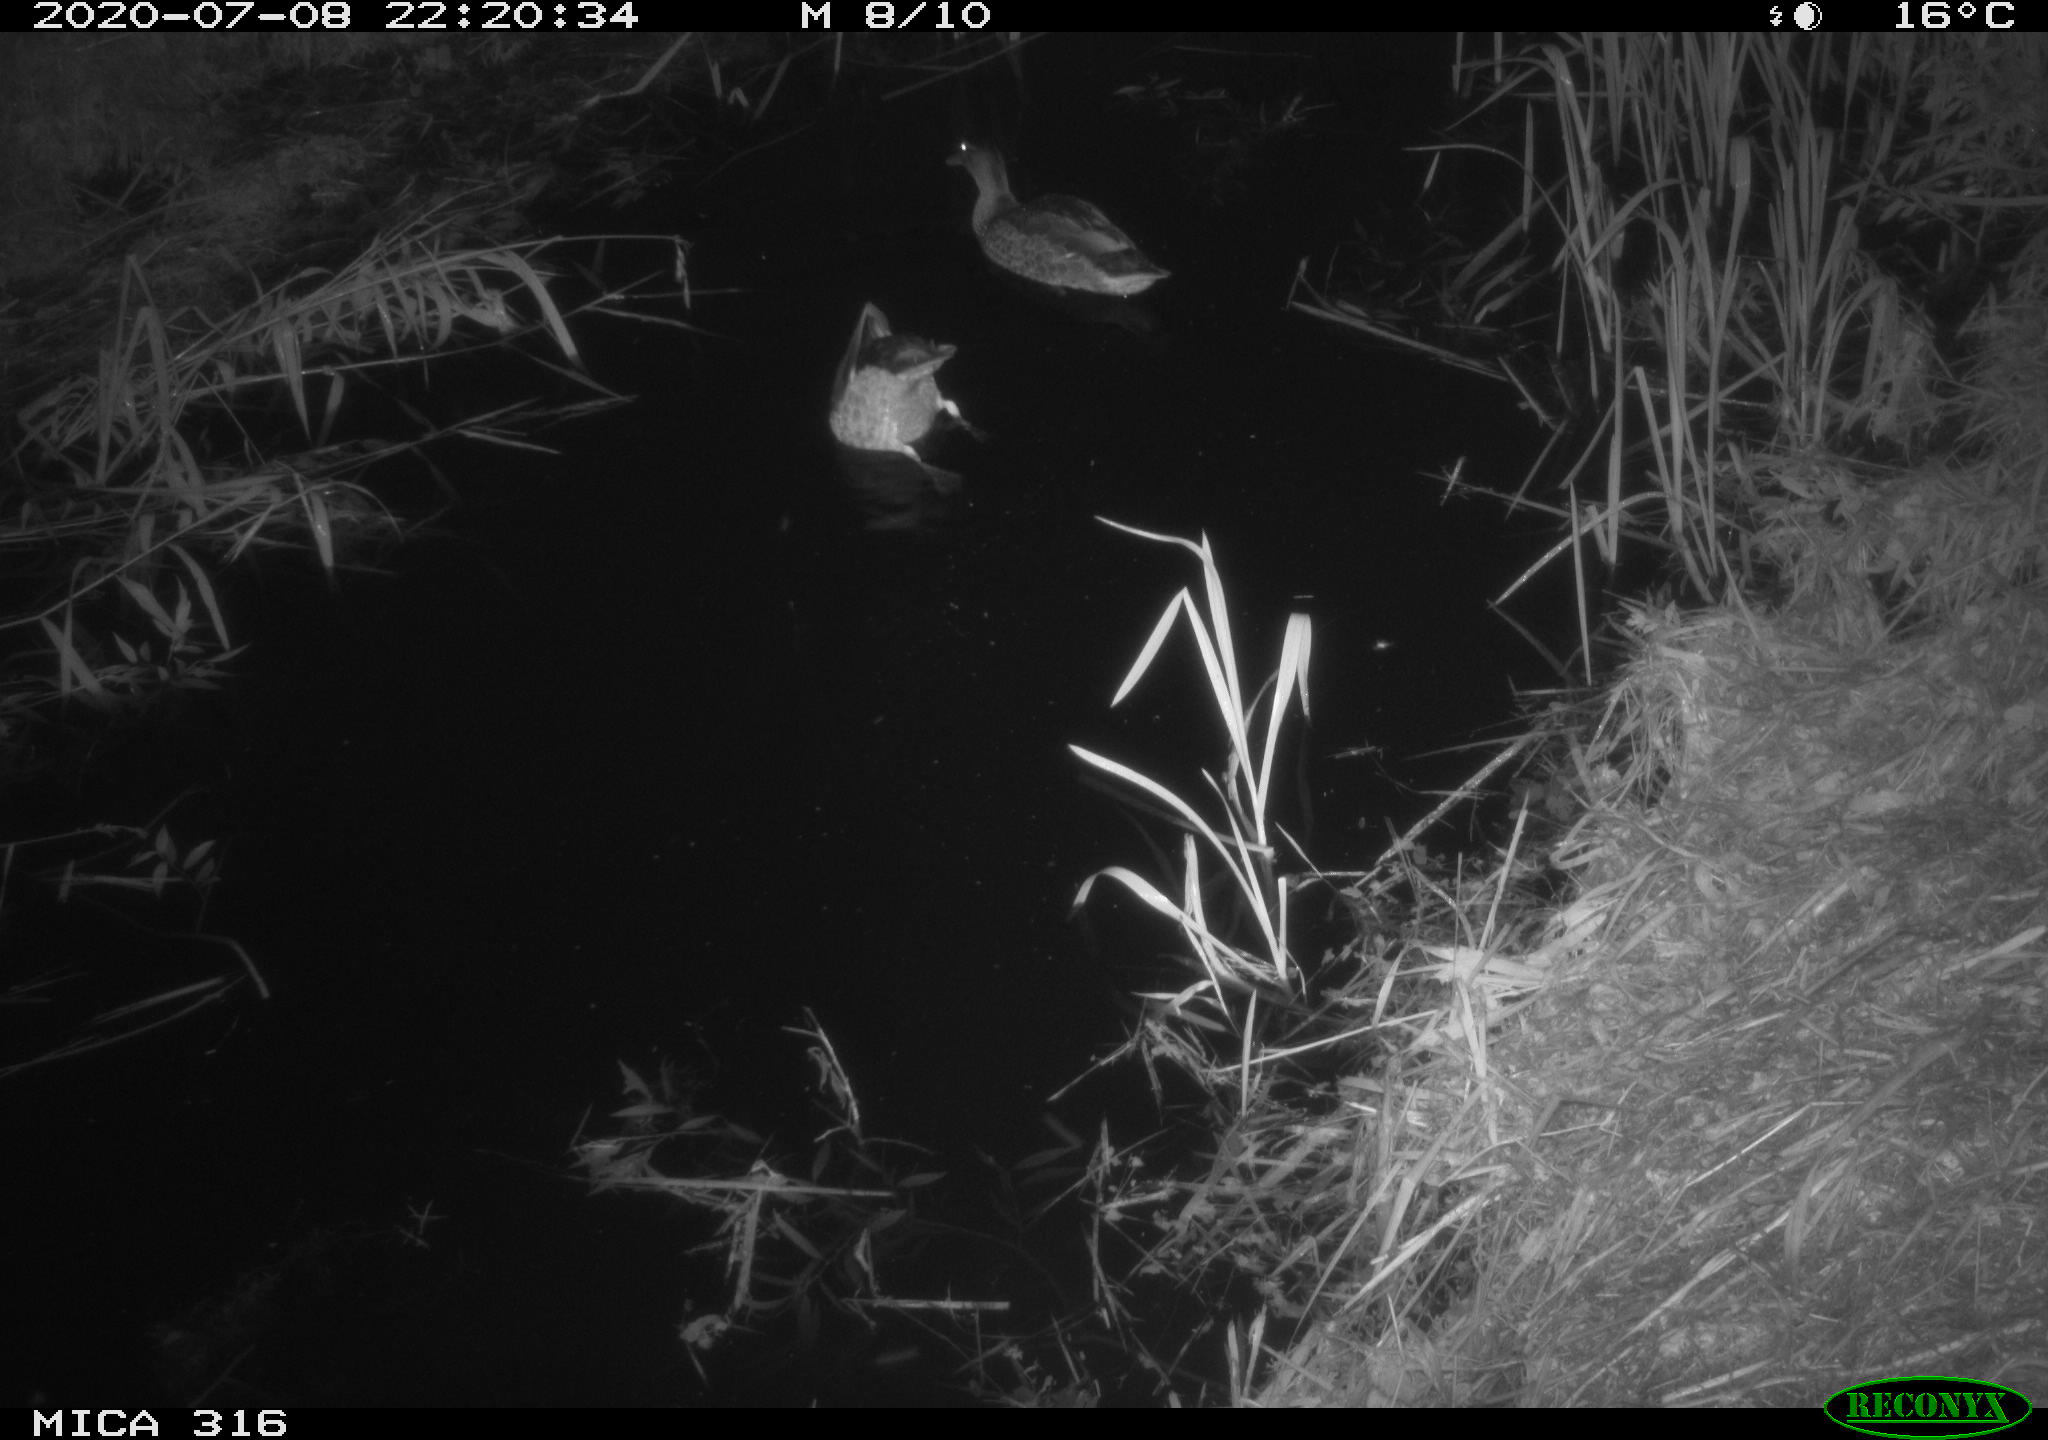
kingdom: Animalia
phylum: Chordata
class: Aves
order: Anseriformes
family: Anatidae
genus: Anas
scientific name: Anas platyrhynchos
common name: Mallard
